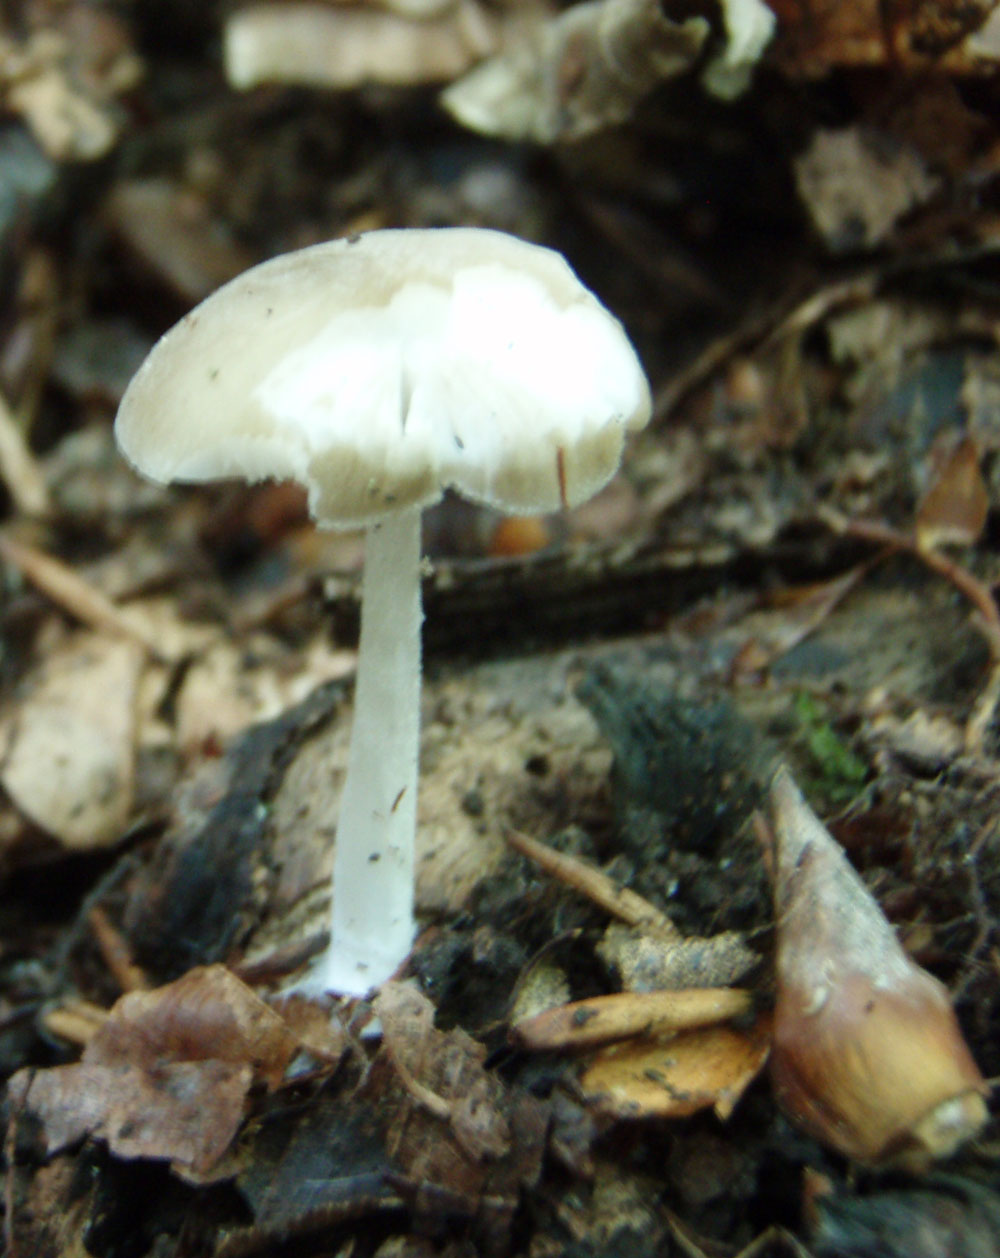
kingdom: Fungi
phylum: Basidiomycota
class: Agaricomycetes
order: Agaricales
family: Porotheleaceae
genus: Hydropodia
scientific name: Hydropodia subalpina
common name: vår-fnugfod
